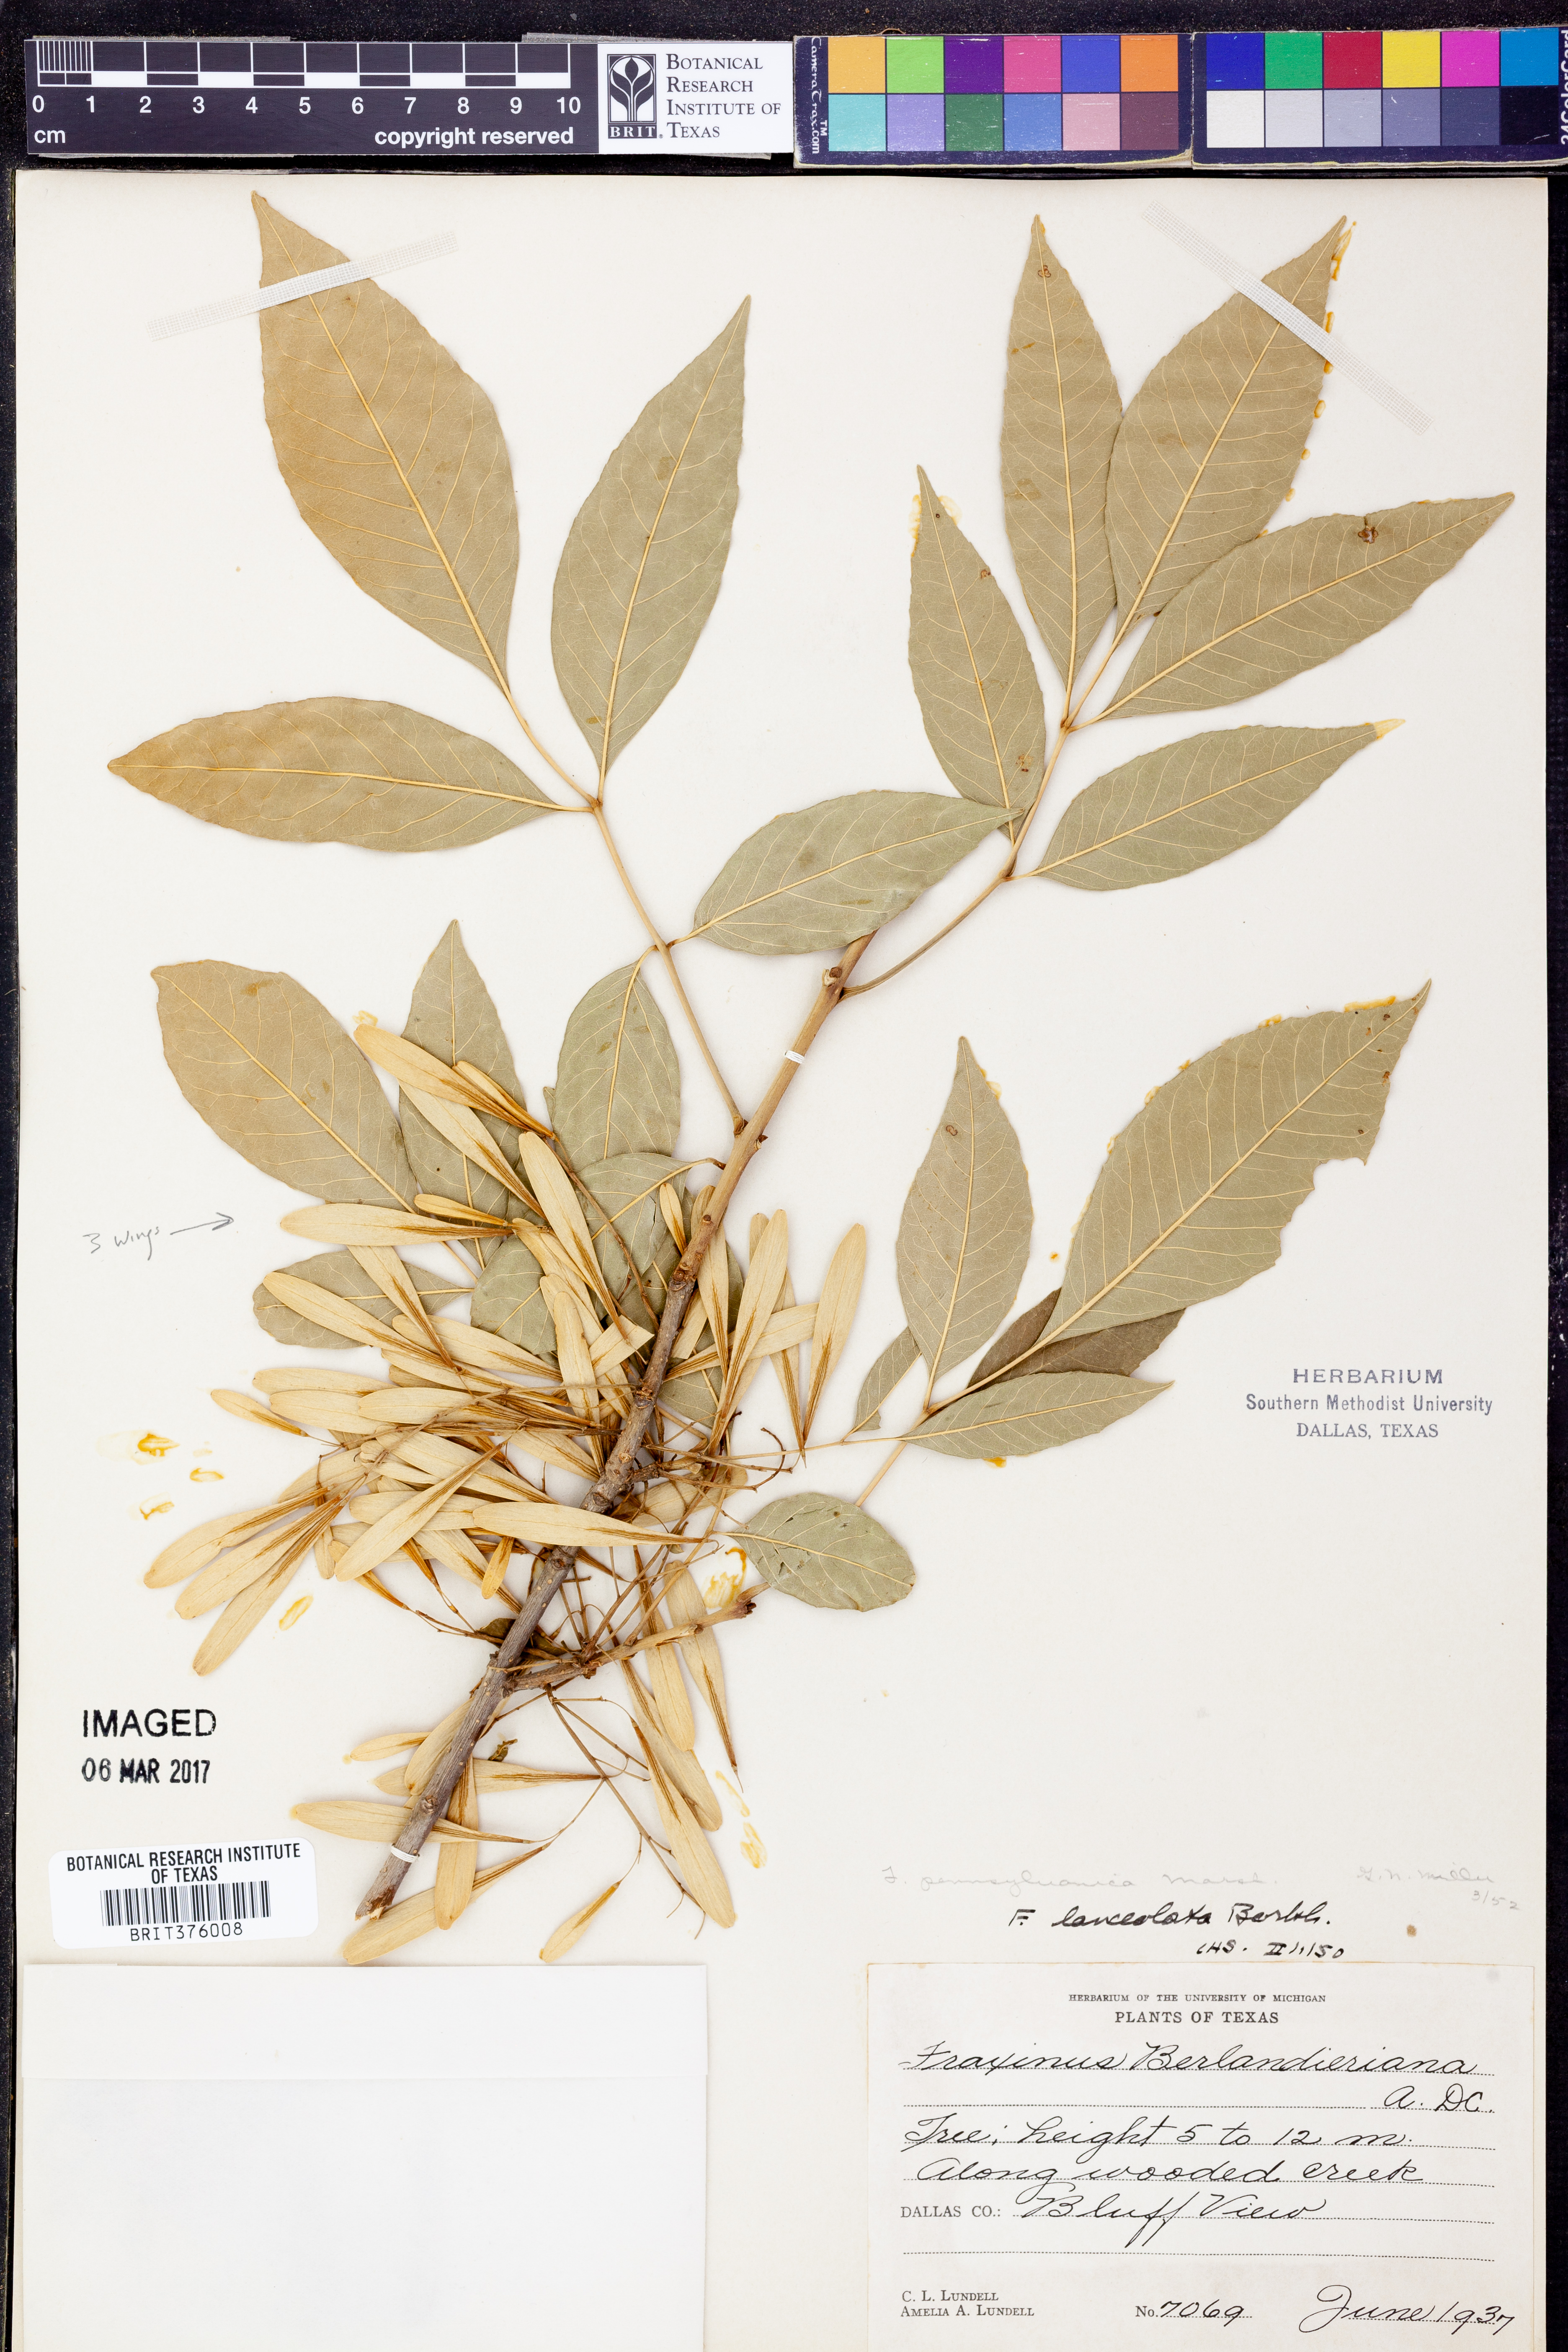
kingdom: Plantae
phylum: Tracheophyta
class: Magnoliopsida
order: Lamiales
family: Oleaceae
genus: Fraxinus
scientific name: Fraxinus pennsylvanica
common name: Green ash
